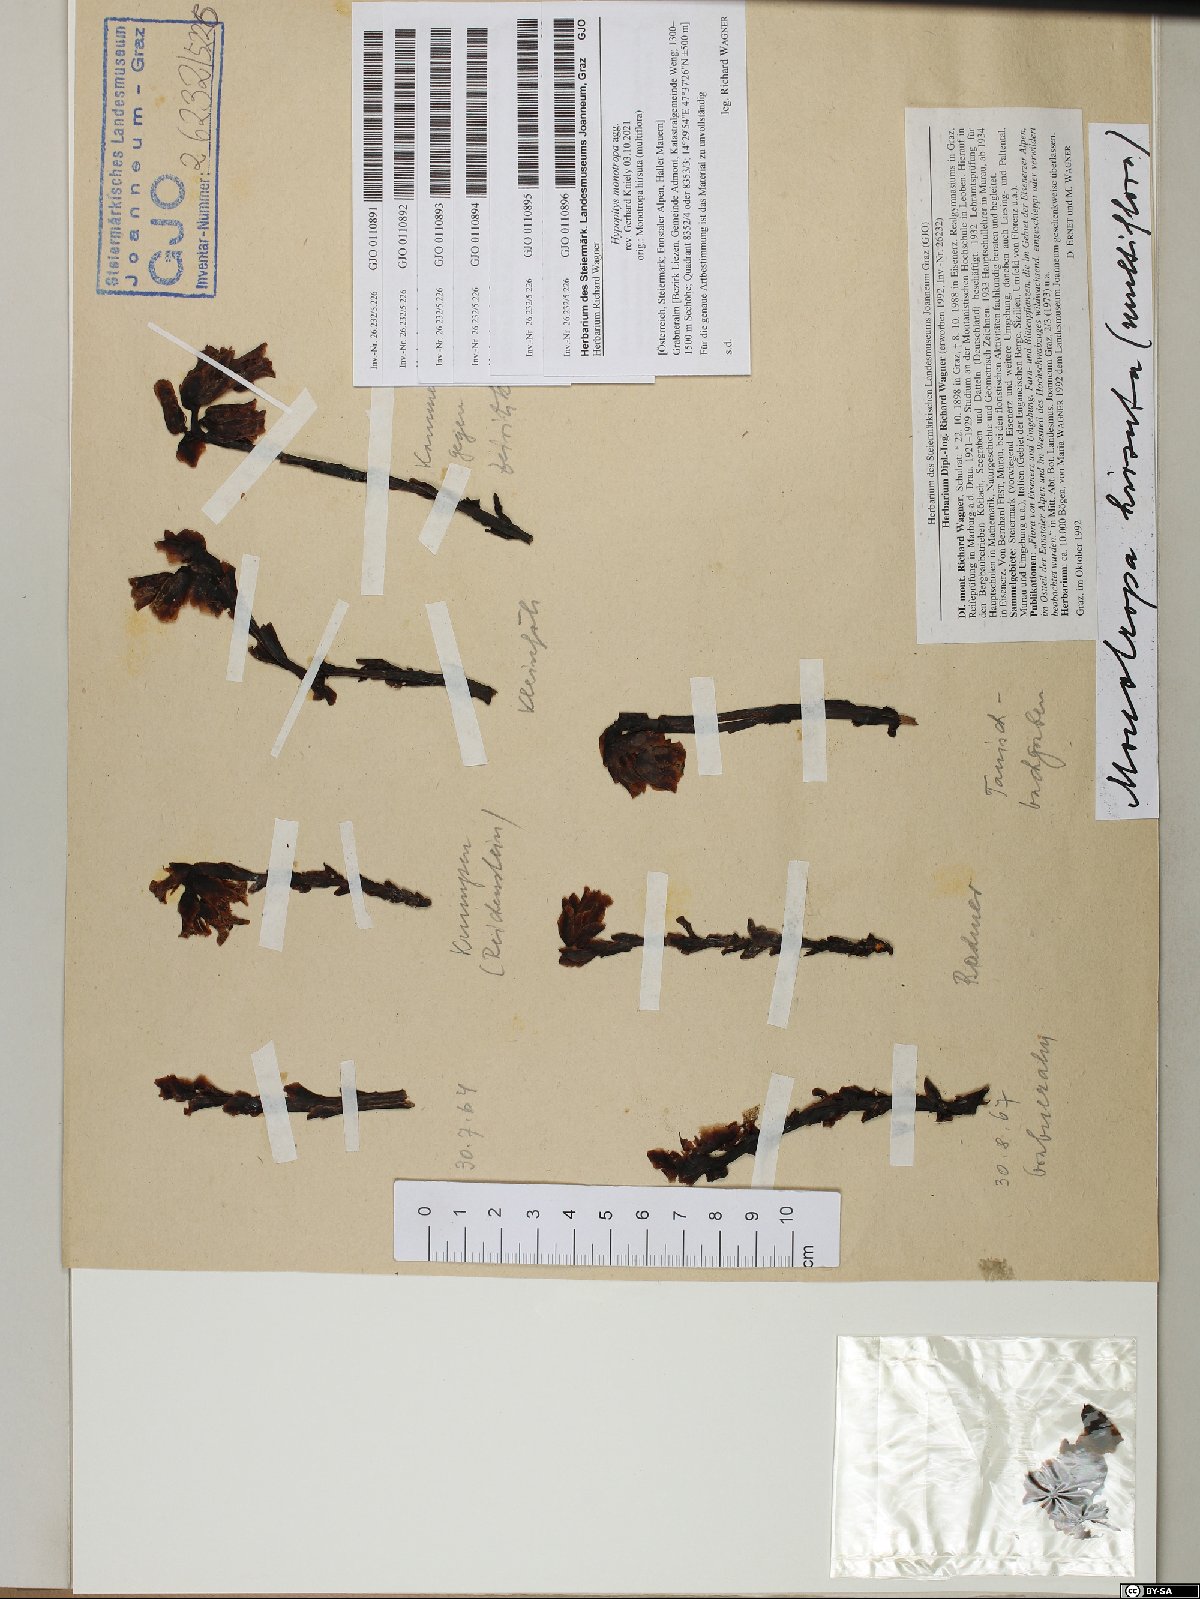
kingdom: Plantae
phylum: Tracheophyta
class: Magnoliopsida
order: Ericales
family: Ericaceae
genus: Hypopitys
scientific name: Hypopitys monotropa
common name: Yellow bird's-nest
